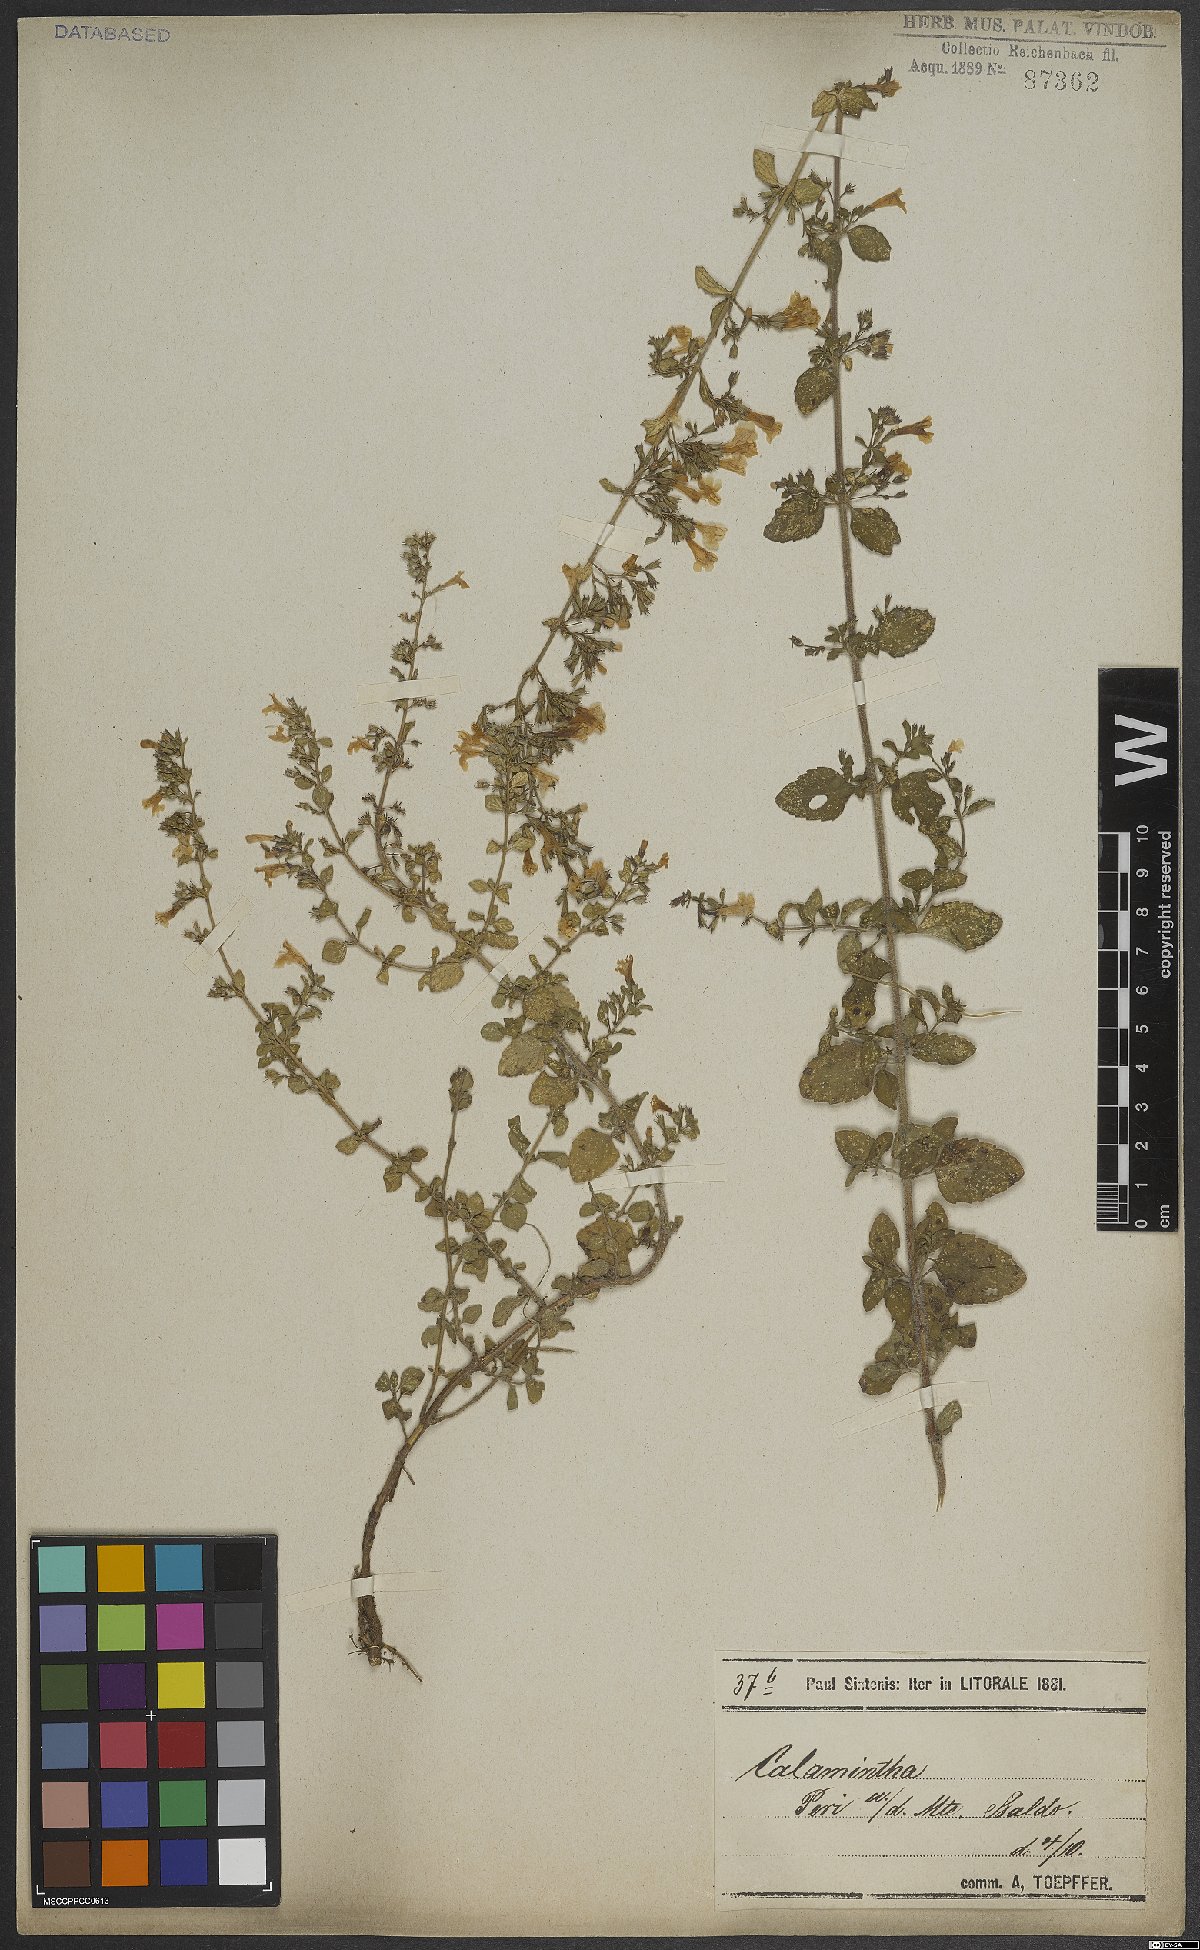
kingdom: Plantae
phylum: Tracheophyta
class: Magnoliopsida
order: Lamiales
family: Lamiaceae
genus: Calamintha
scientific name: Calamintha
